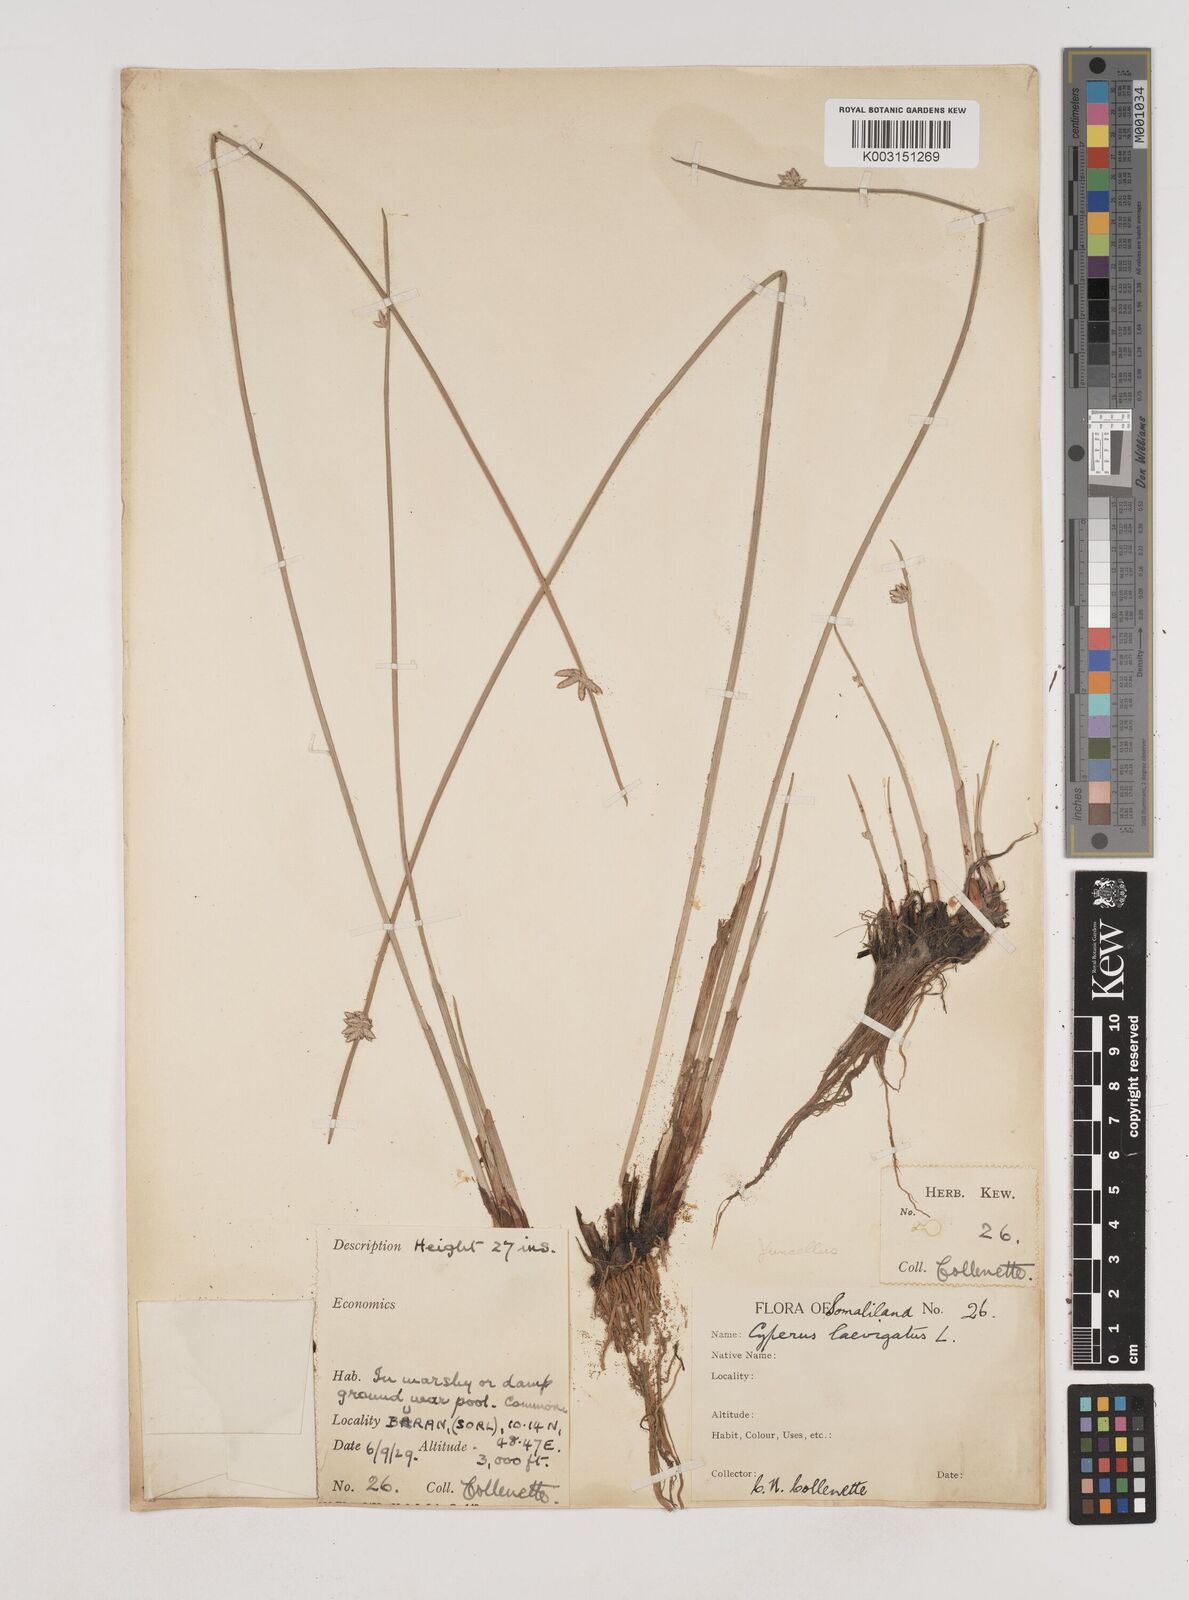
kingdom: Plantae
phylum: Tracheophyta
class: Liliopsida
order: Poales
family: Cyperaceae
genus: Cyperus
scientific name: Cyperus laevigatus
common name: Smooth flat sedge
